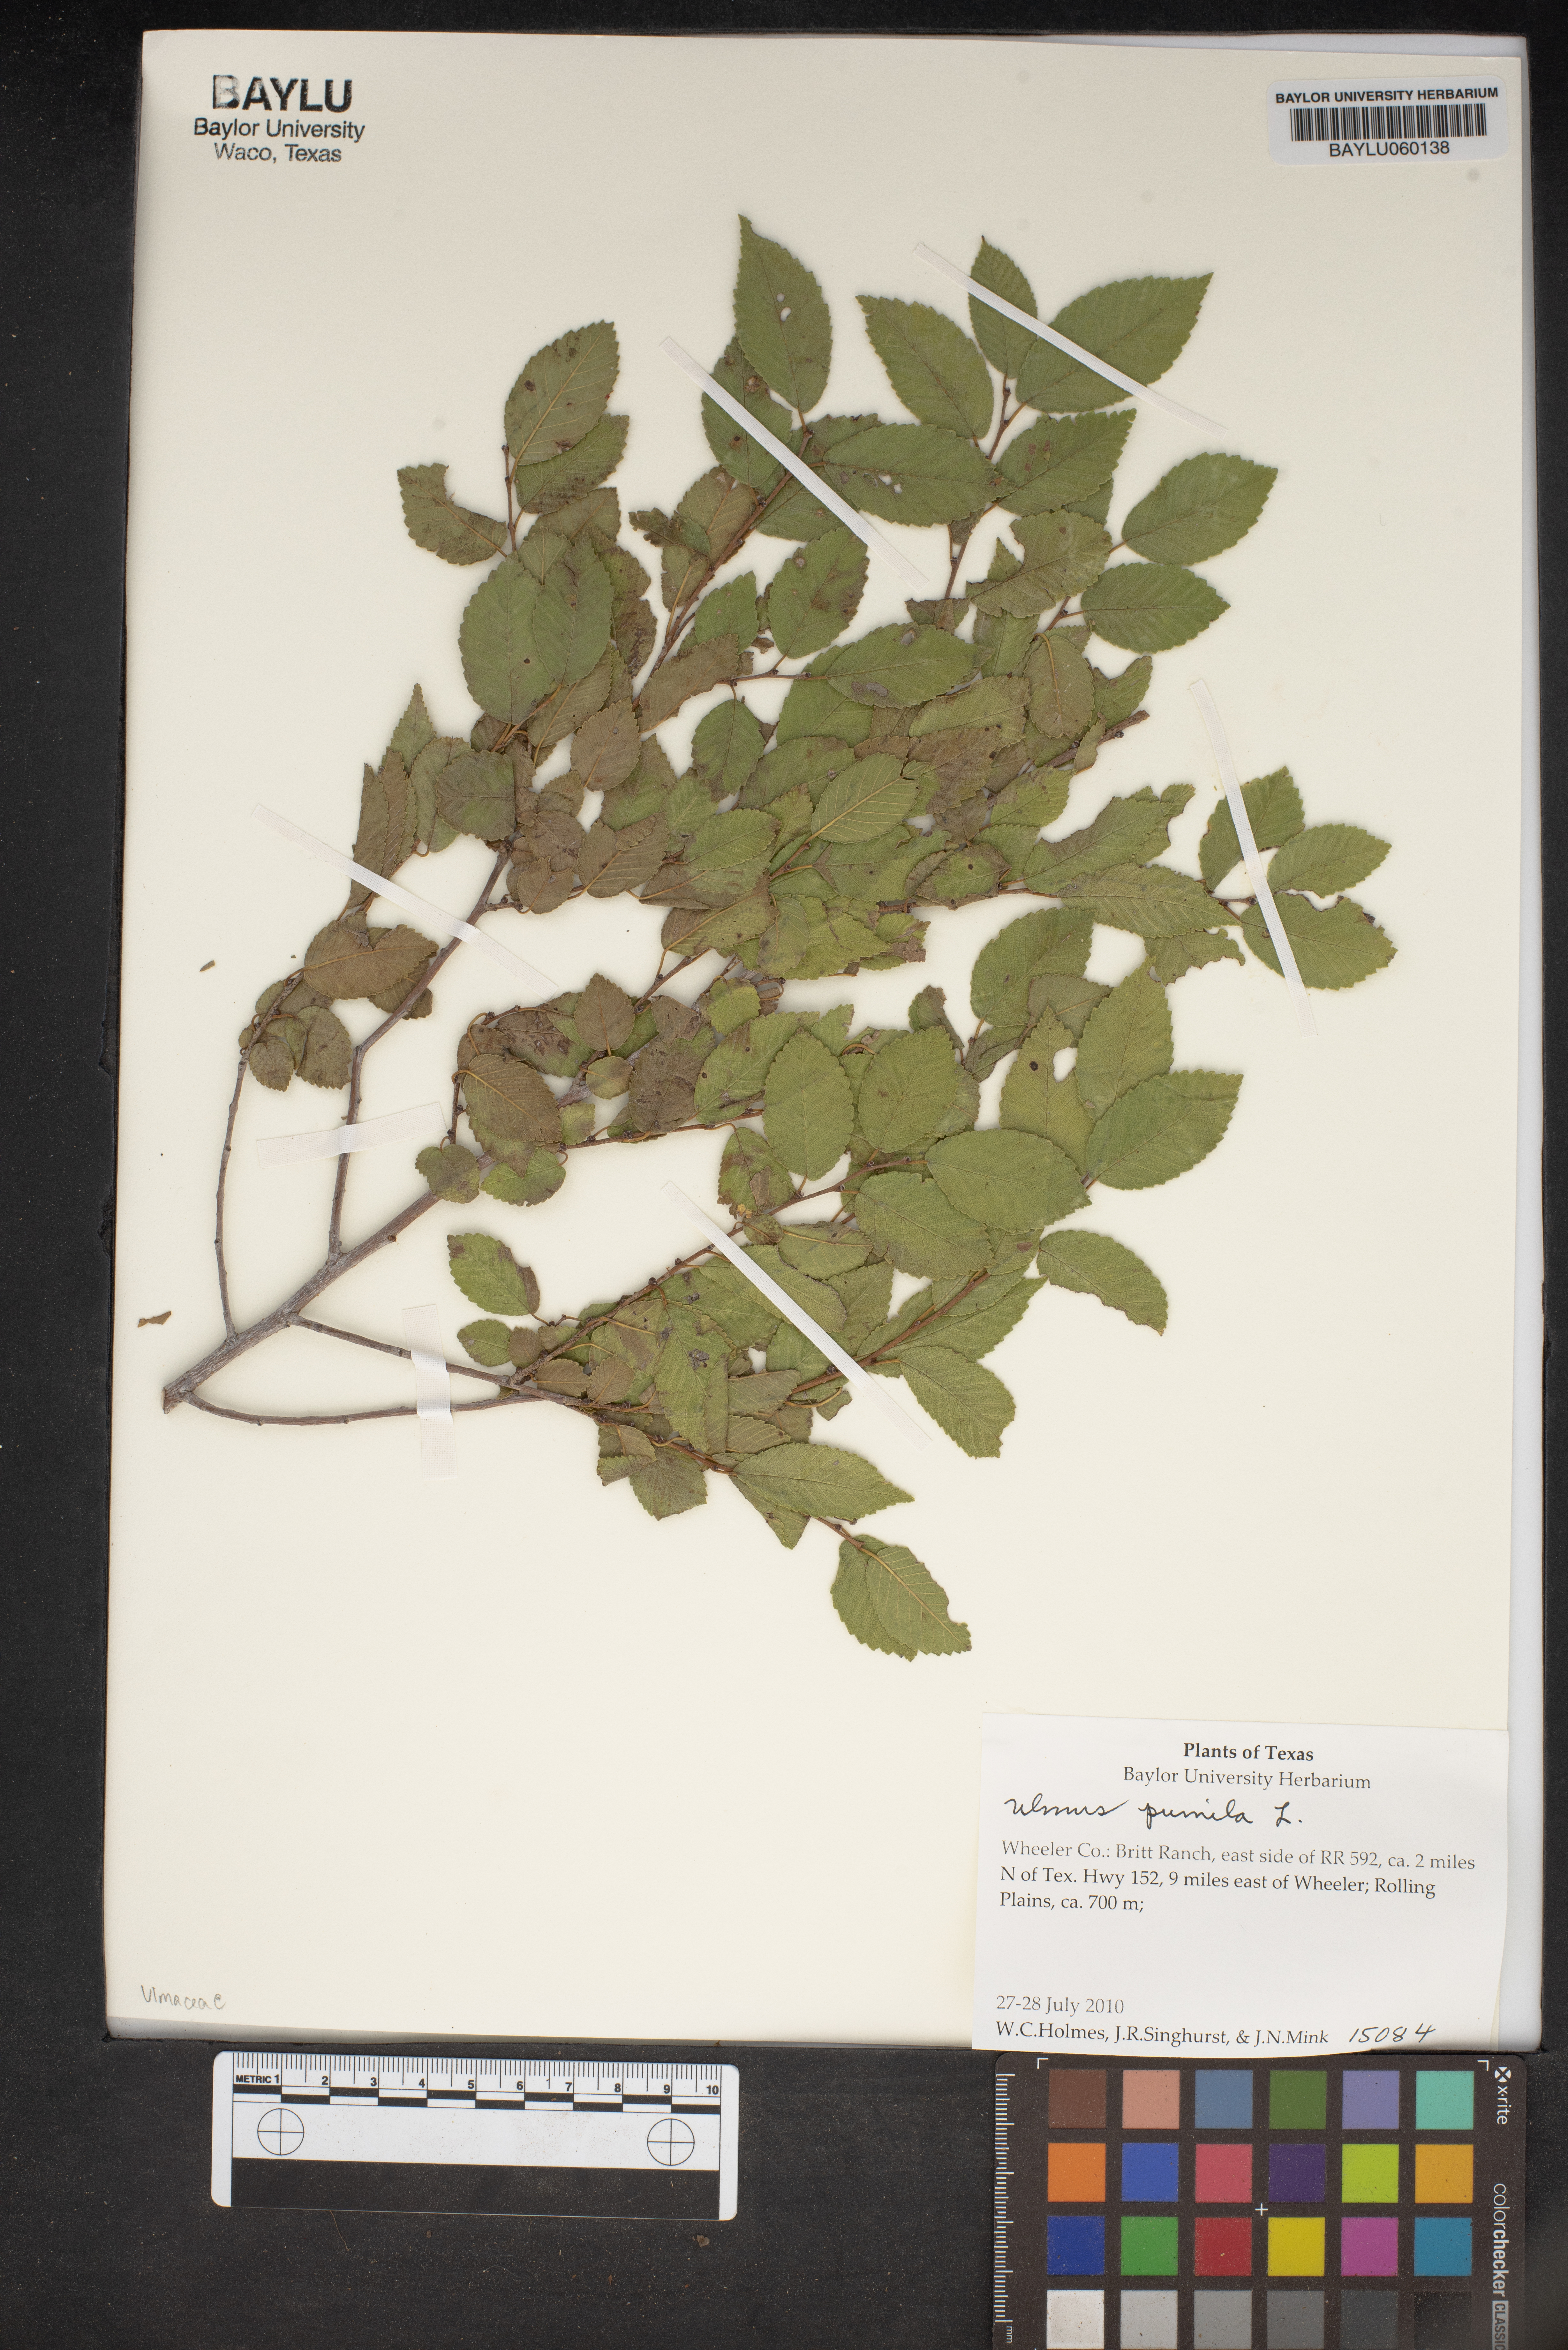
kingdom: Plantae
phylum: Tracheophyta
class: Magnoliopsida
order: Rosales
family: Ulmaceae
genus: Ulmus
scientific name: Ulmus pumila
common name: Siberian elm
